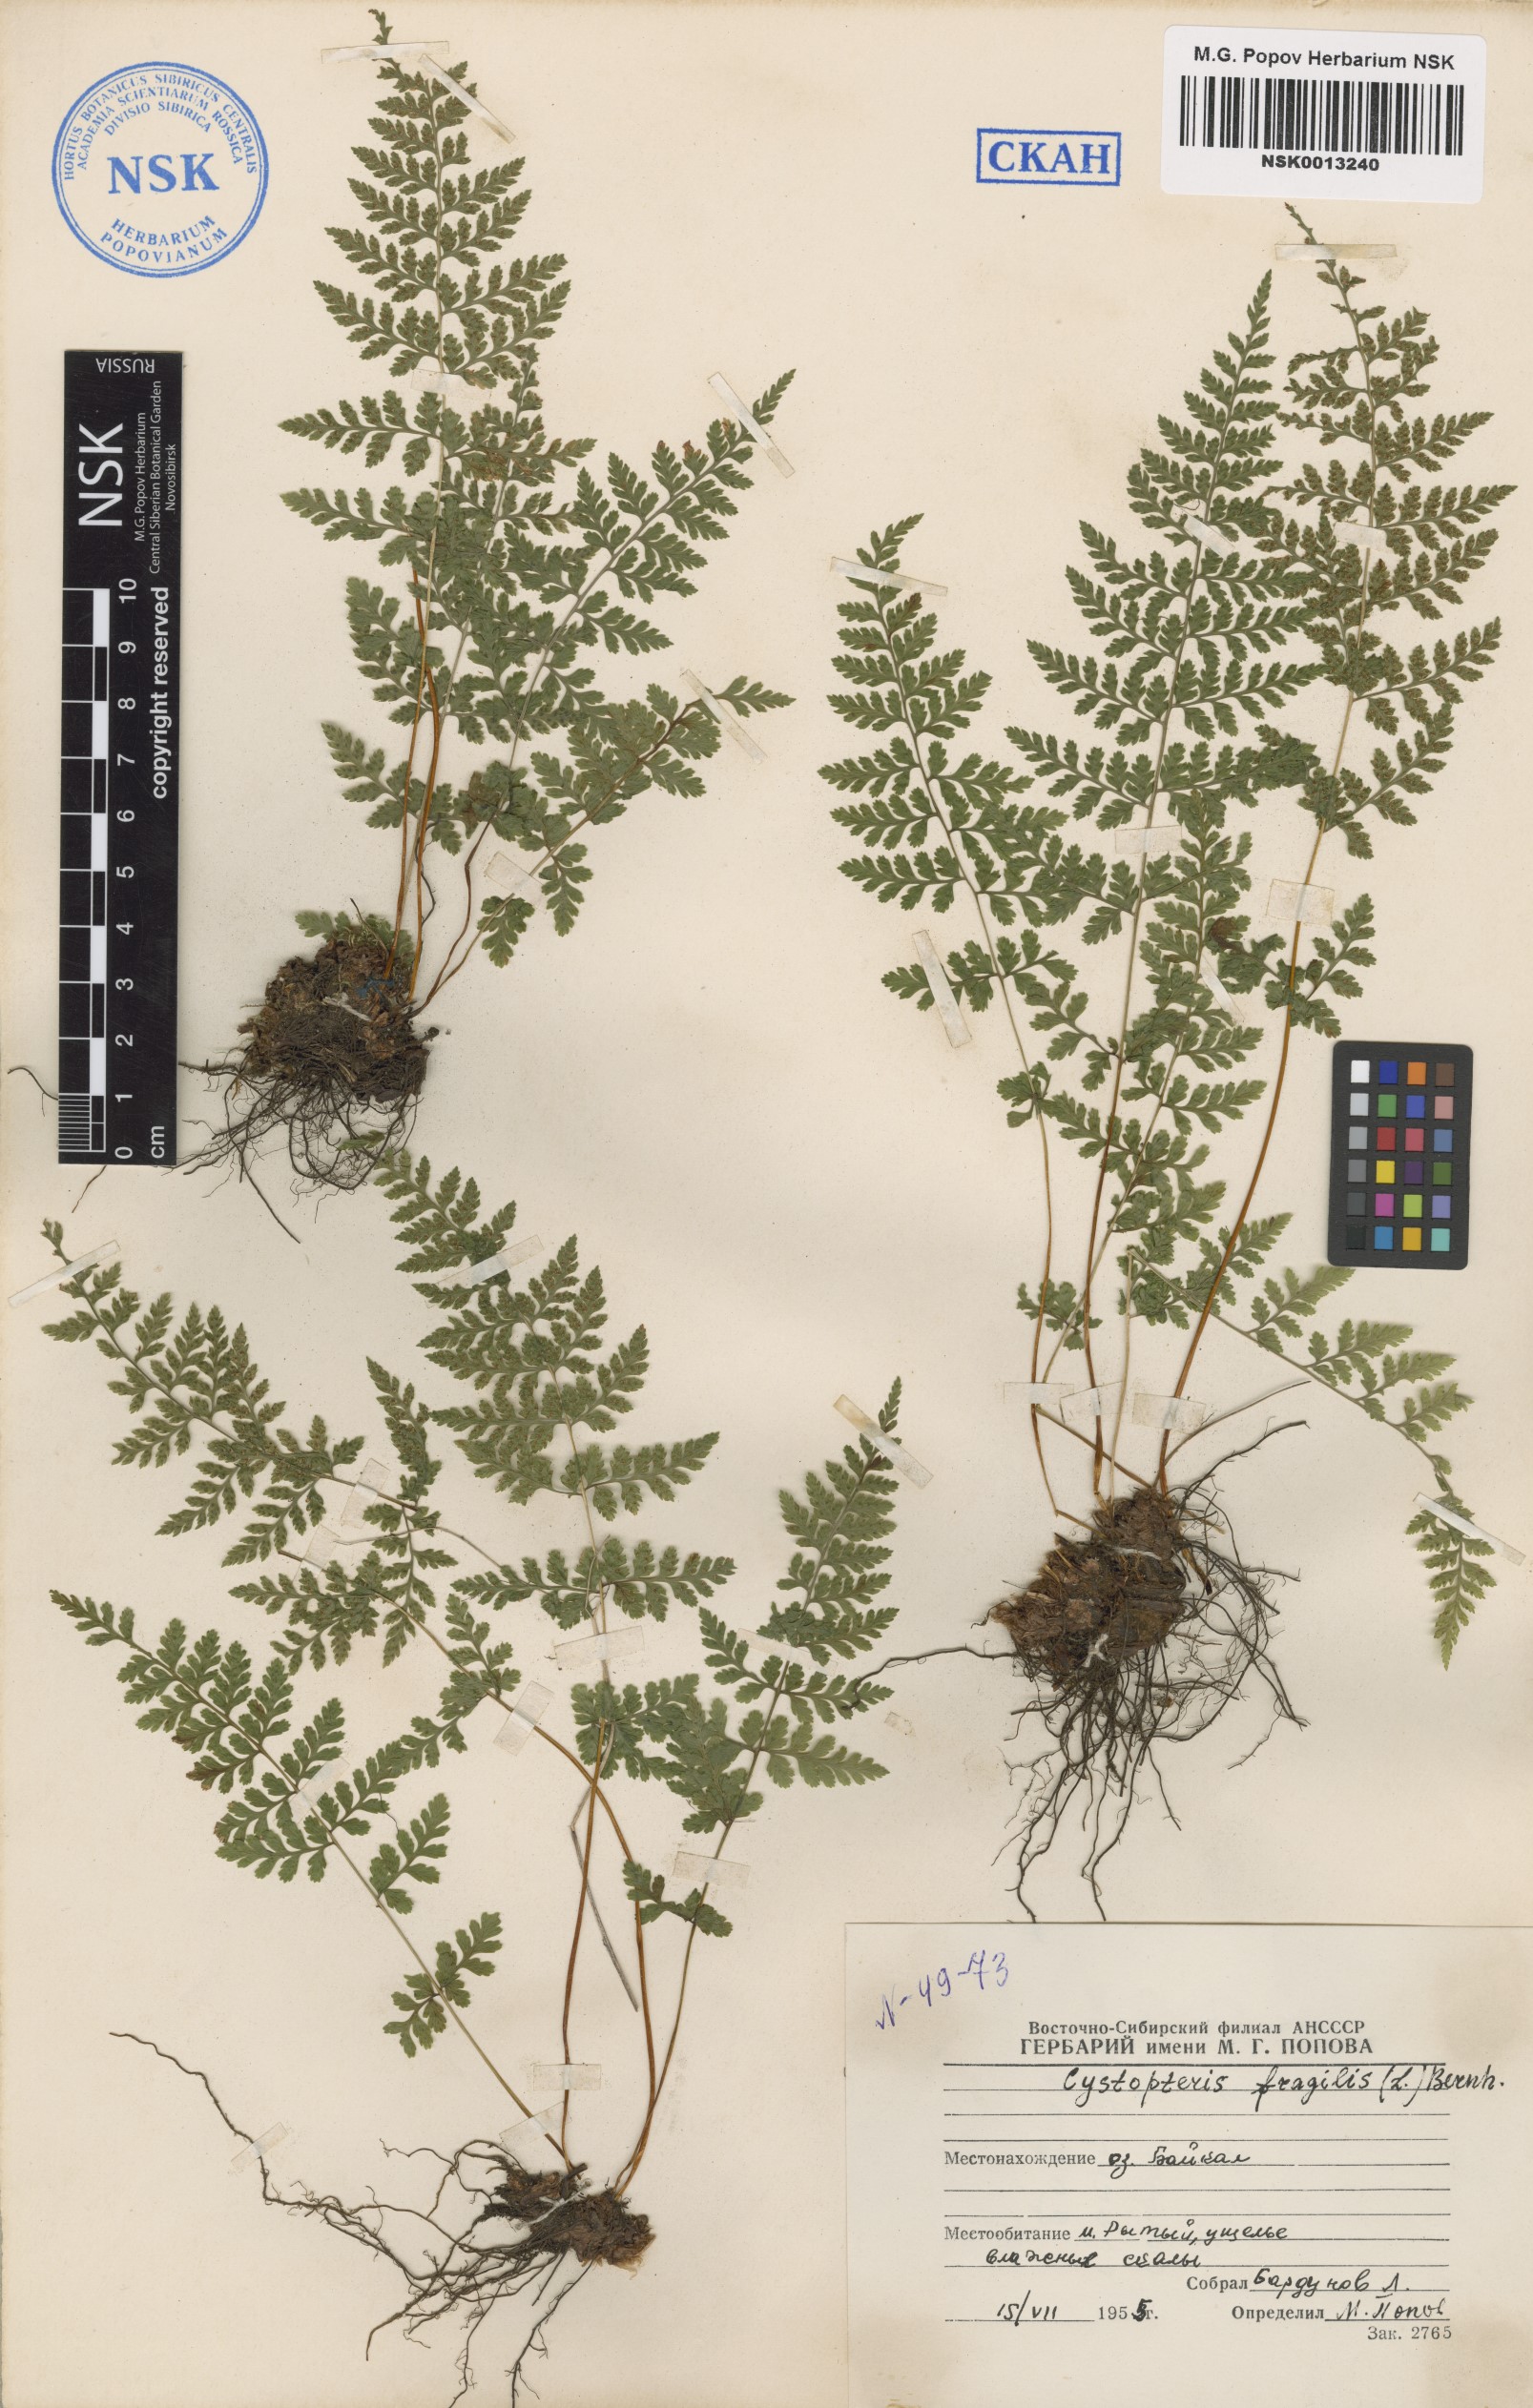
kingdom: Plantae
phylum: Tracheophyta
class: Polypodiopsida
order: Polypodiales
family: Cystopteridaceae
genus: Cystopteris
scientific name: Cystopteris fragilis
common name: Brittle bladder fern
